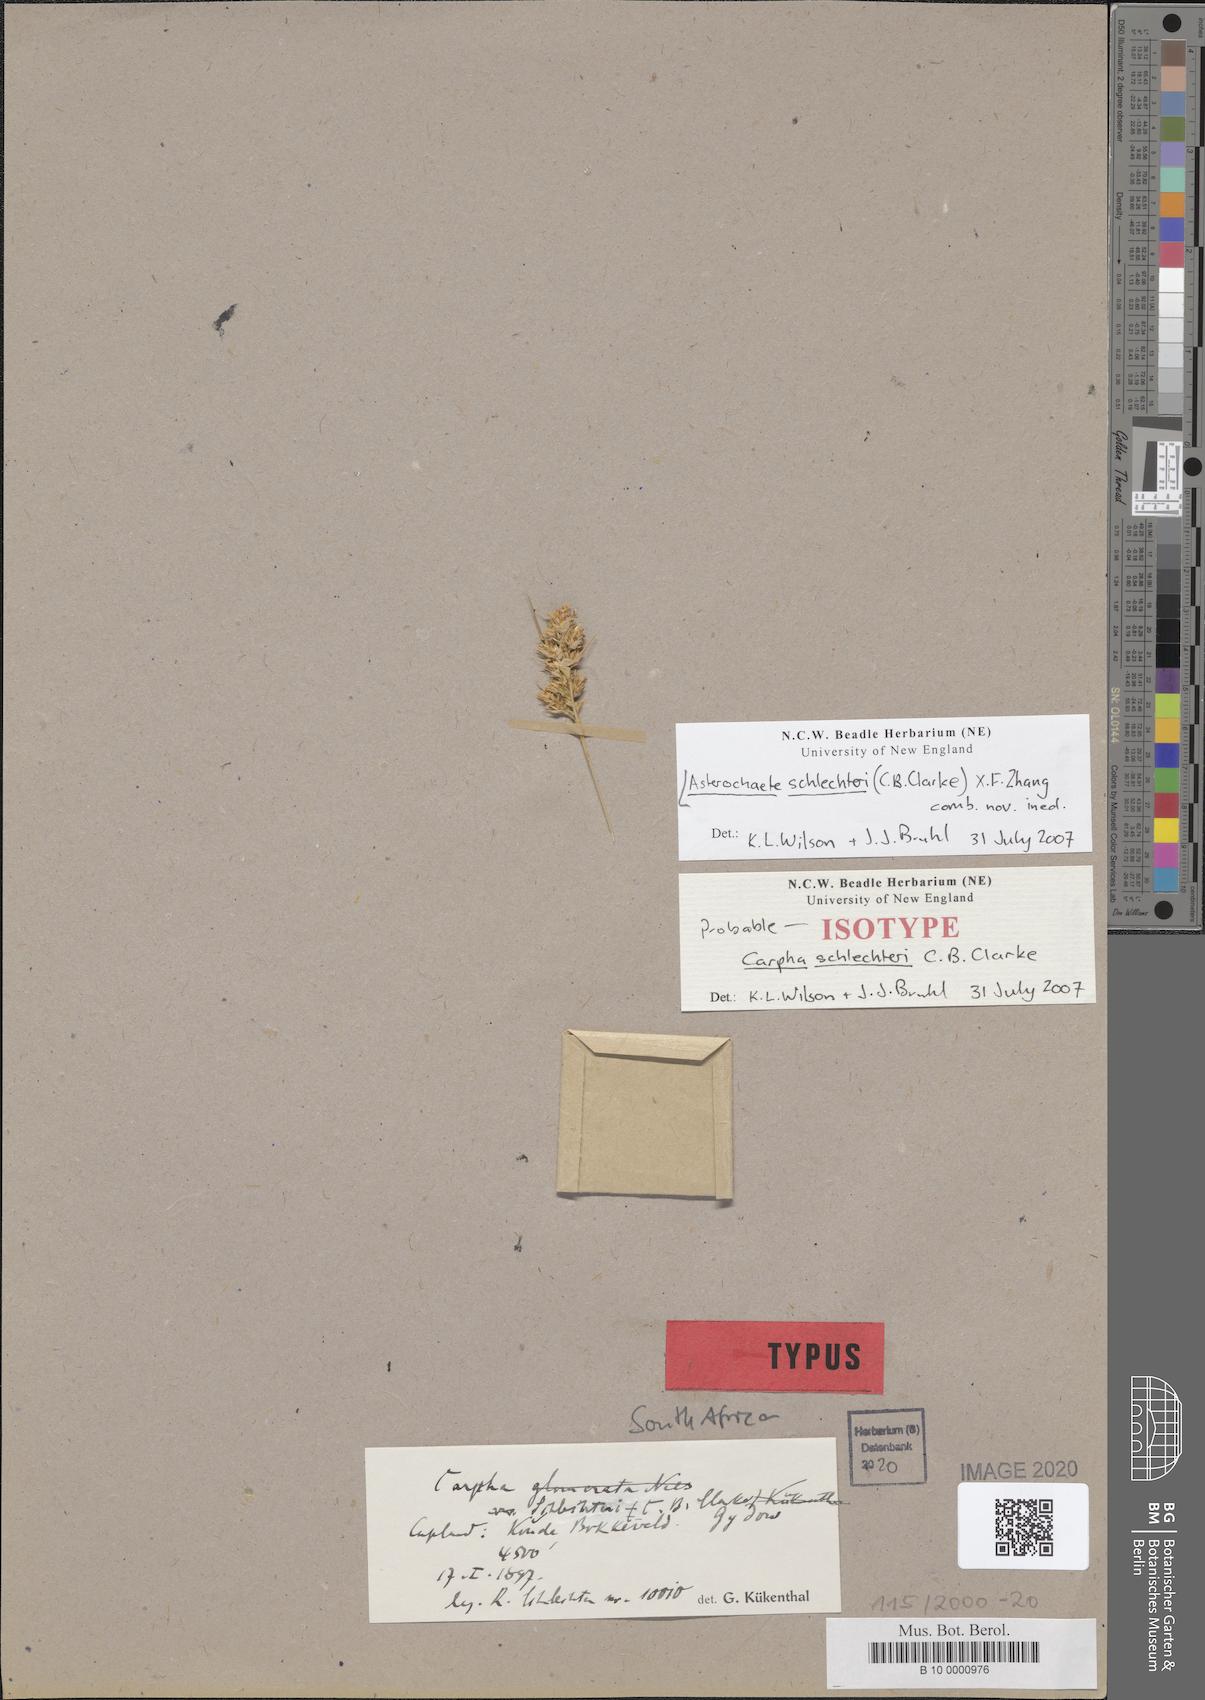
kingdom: Plantae
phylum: Tracheophyta
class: Liliopsida
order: Poales
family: Cyperaceae
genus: Carpha
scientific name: Carpha
